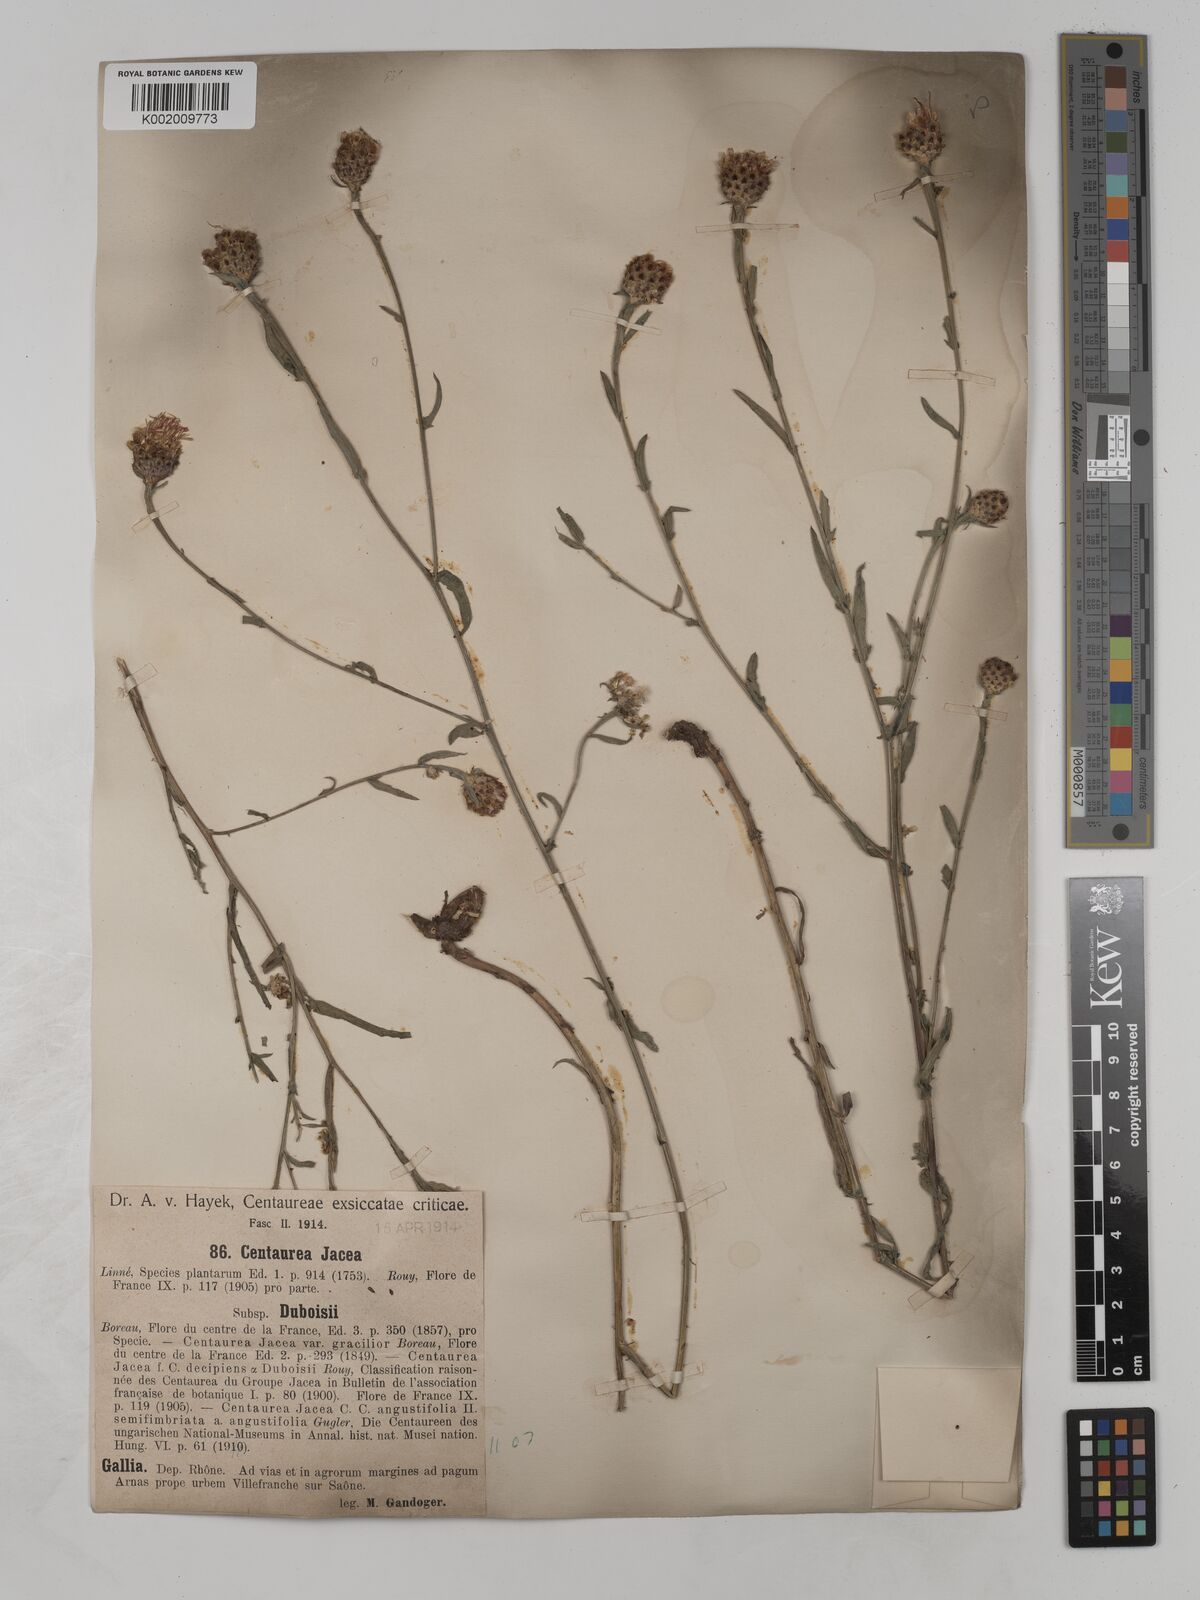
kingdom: Plantae
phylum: Tracheophyta
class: Magnoliopsida
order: Asterales
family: Asteraceae
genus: Centaurea
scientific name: Centaurea timbalii
